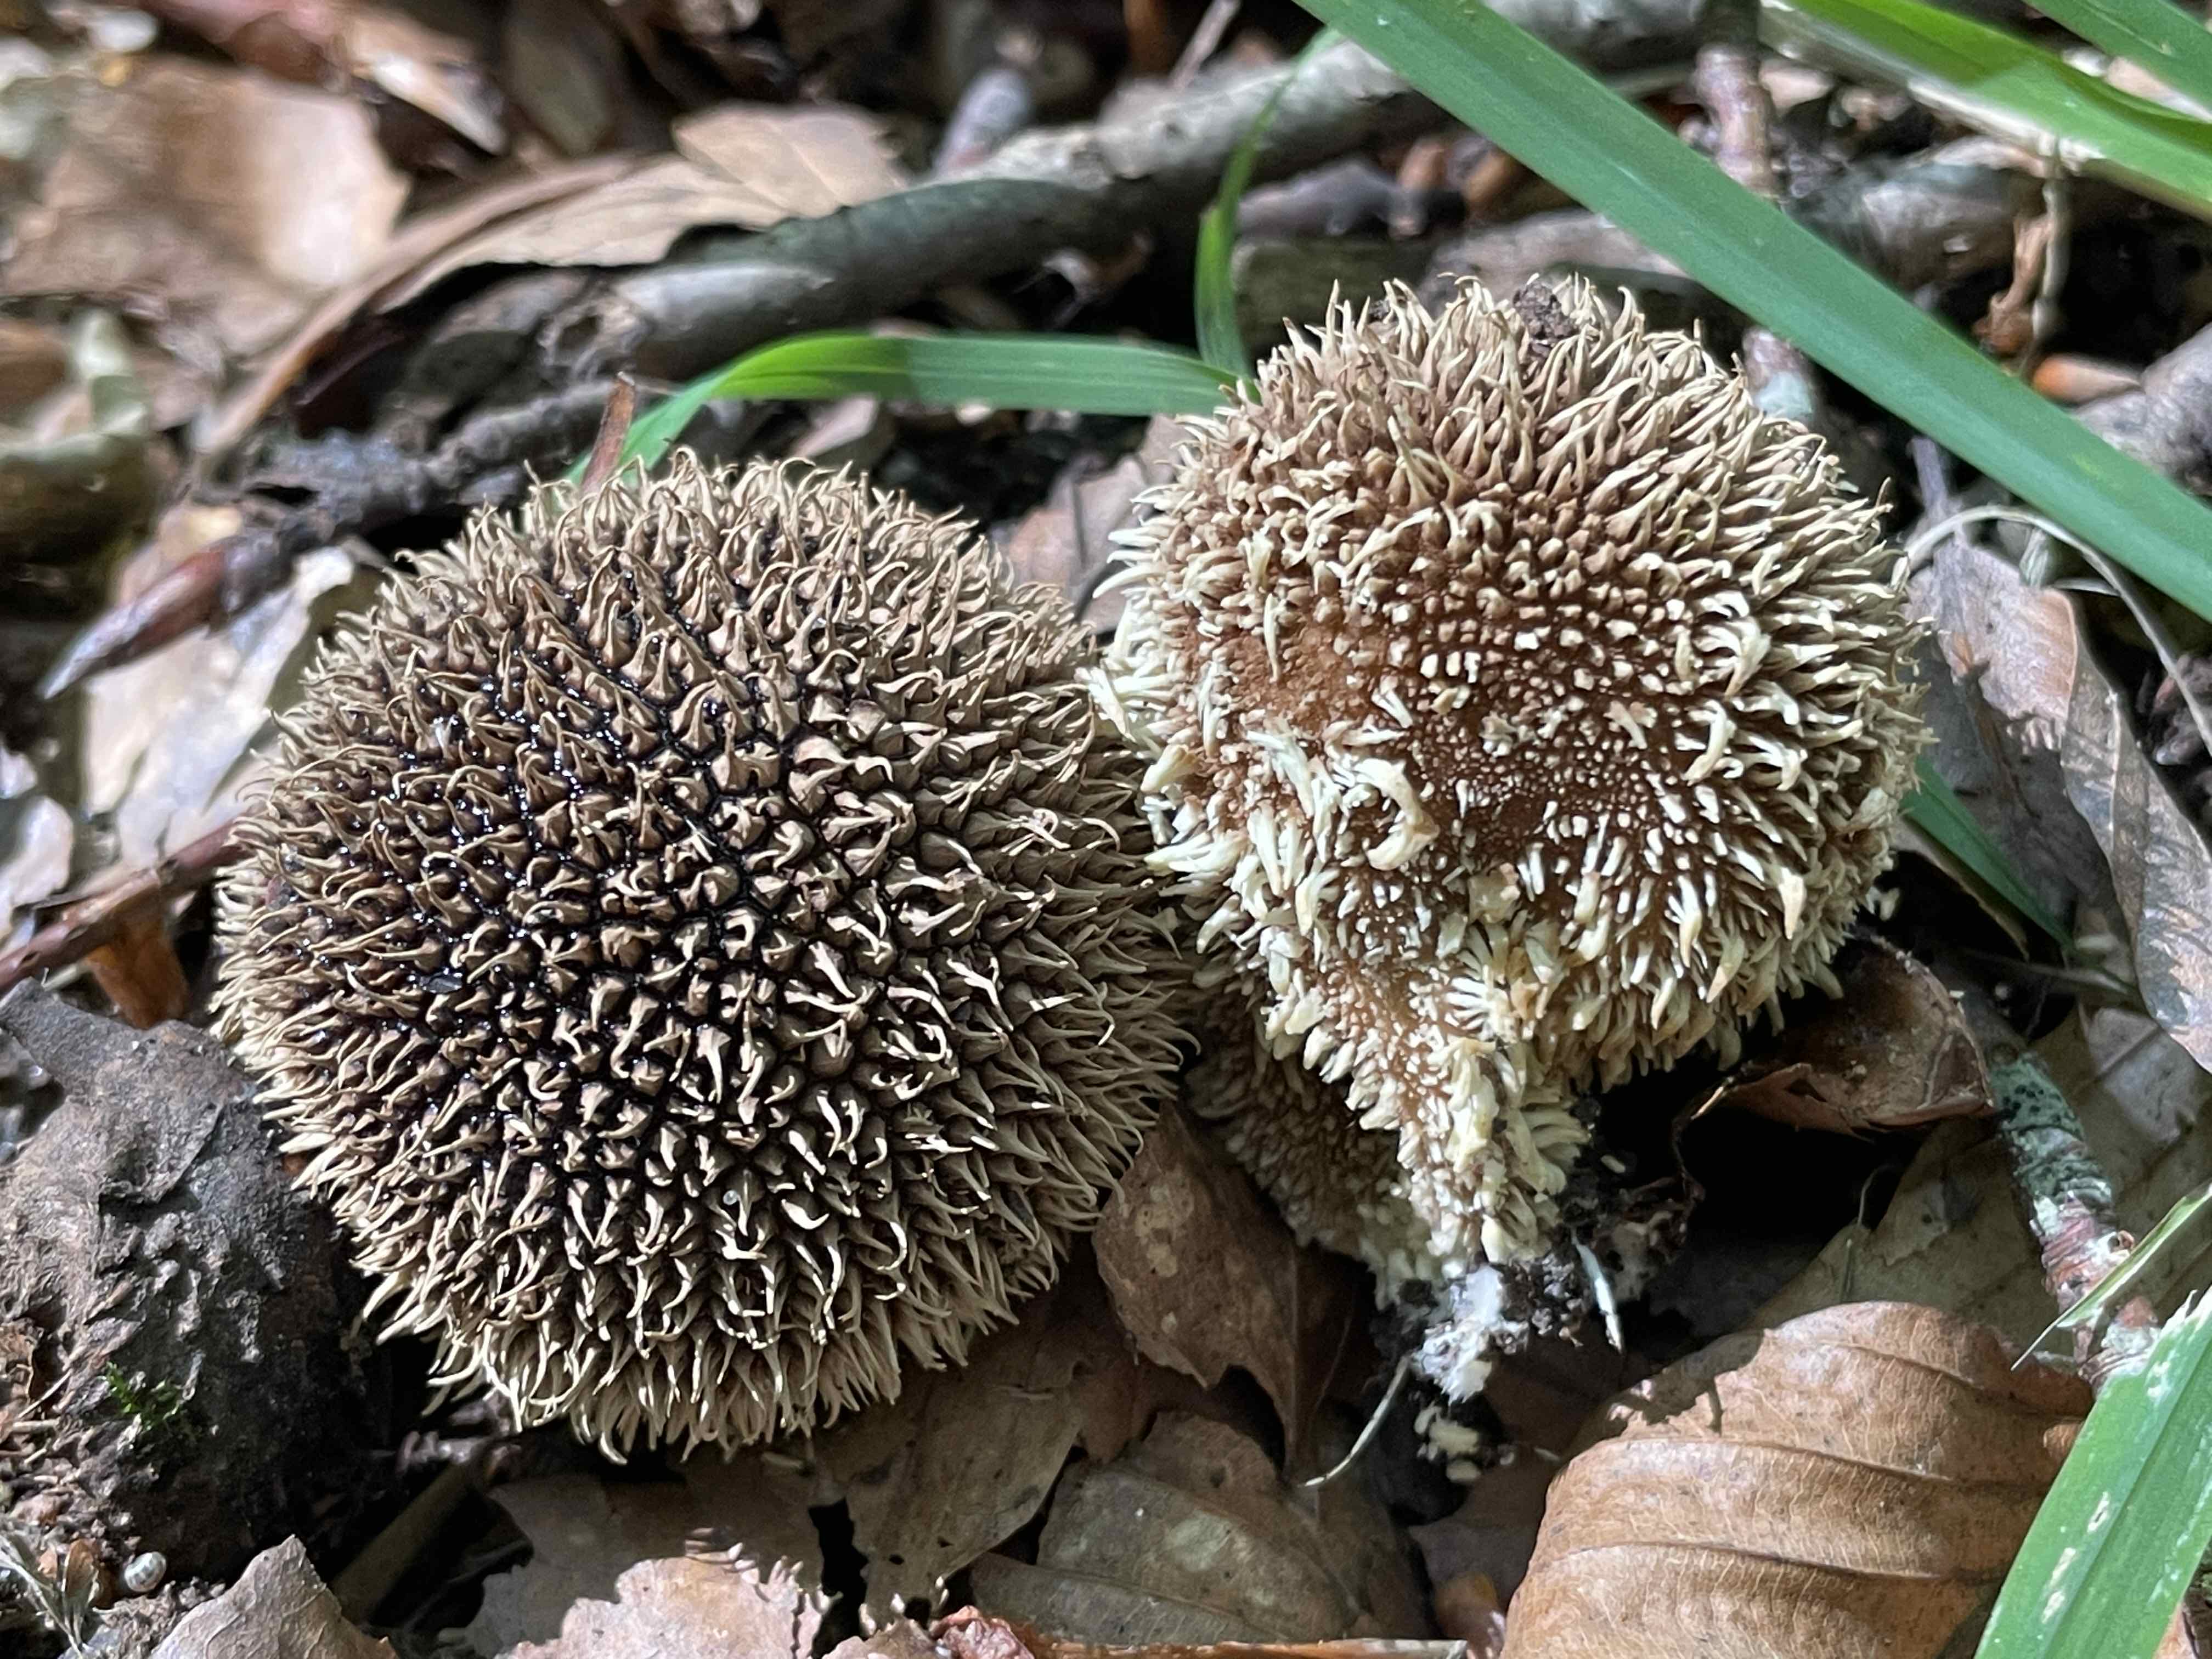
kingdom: Fungi
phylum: Basidiomycota
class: Agaricomycetes
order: Agaricales
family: Lycoperdaceae
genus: Lycoperdon
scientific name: Lycoperdon echinatum
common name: pindsvine-støvbold
